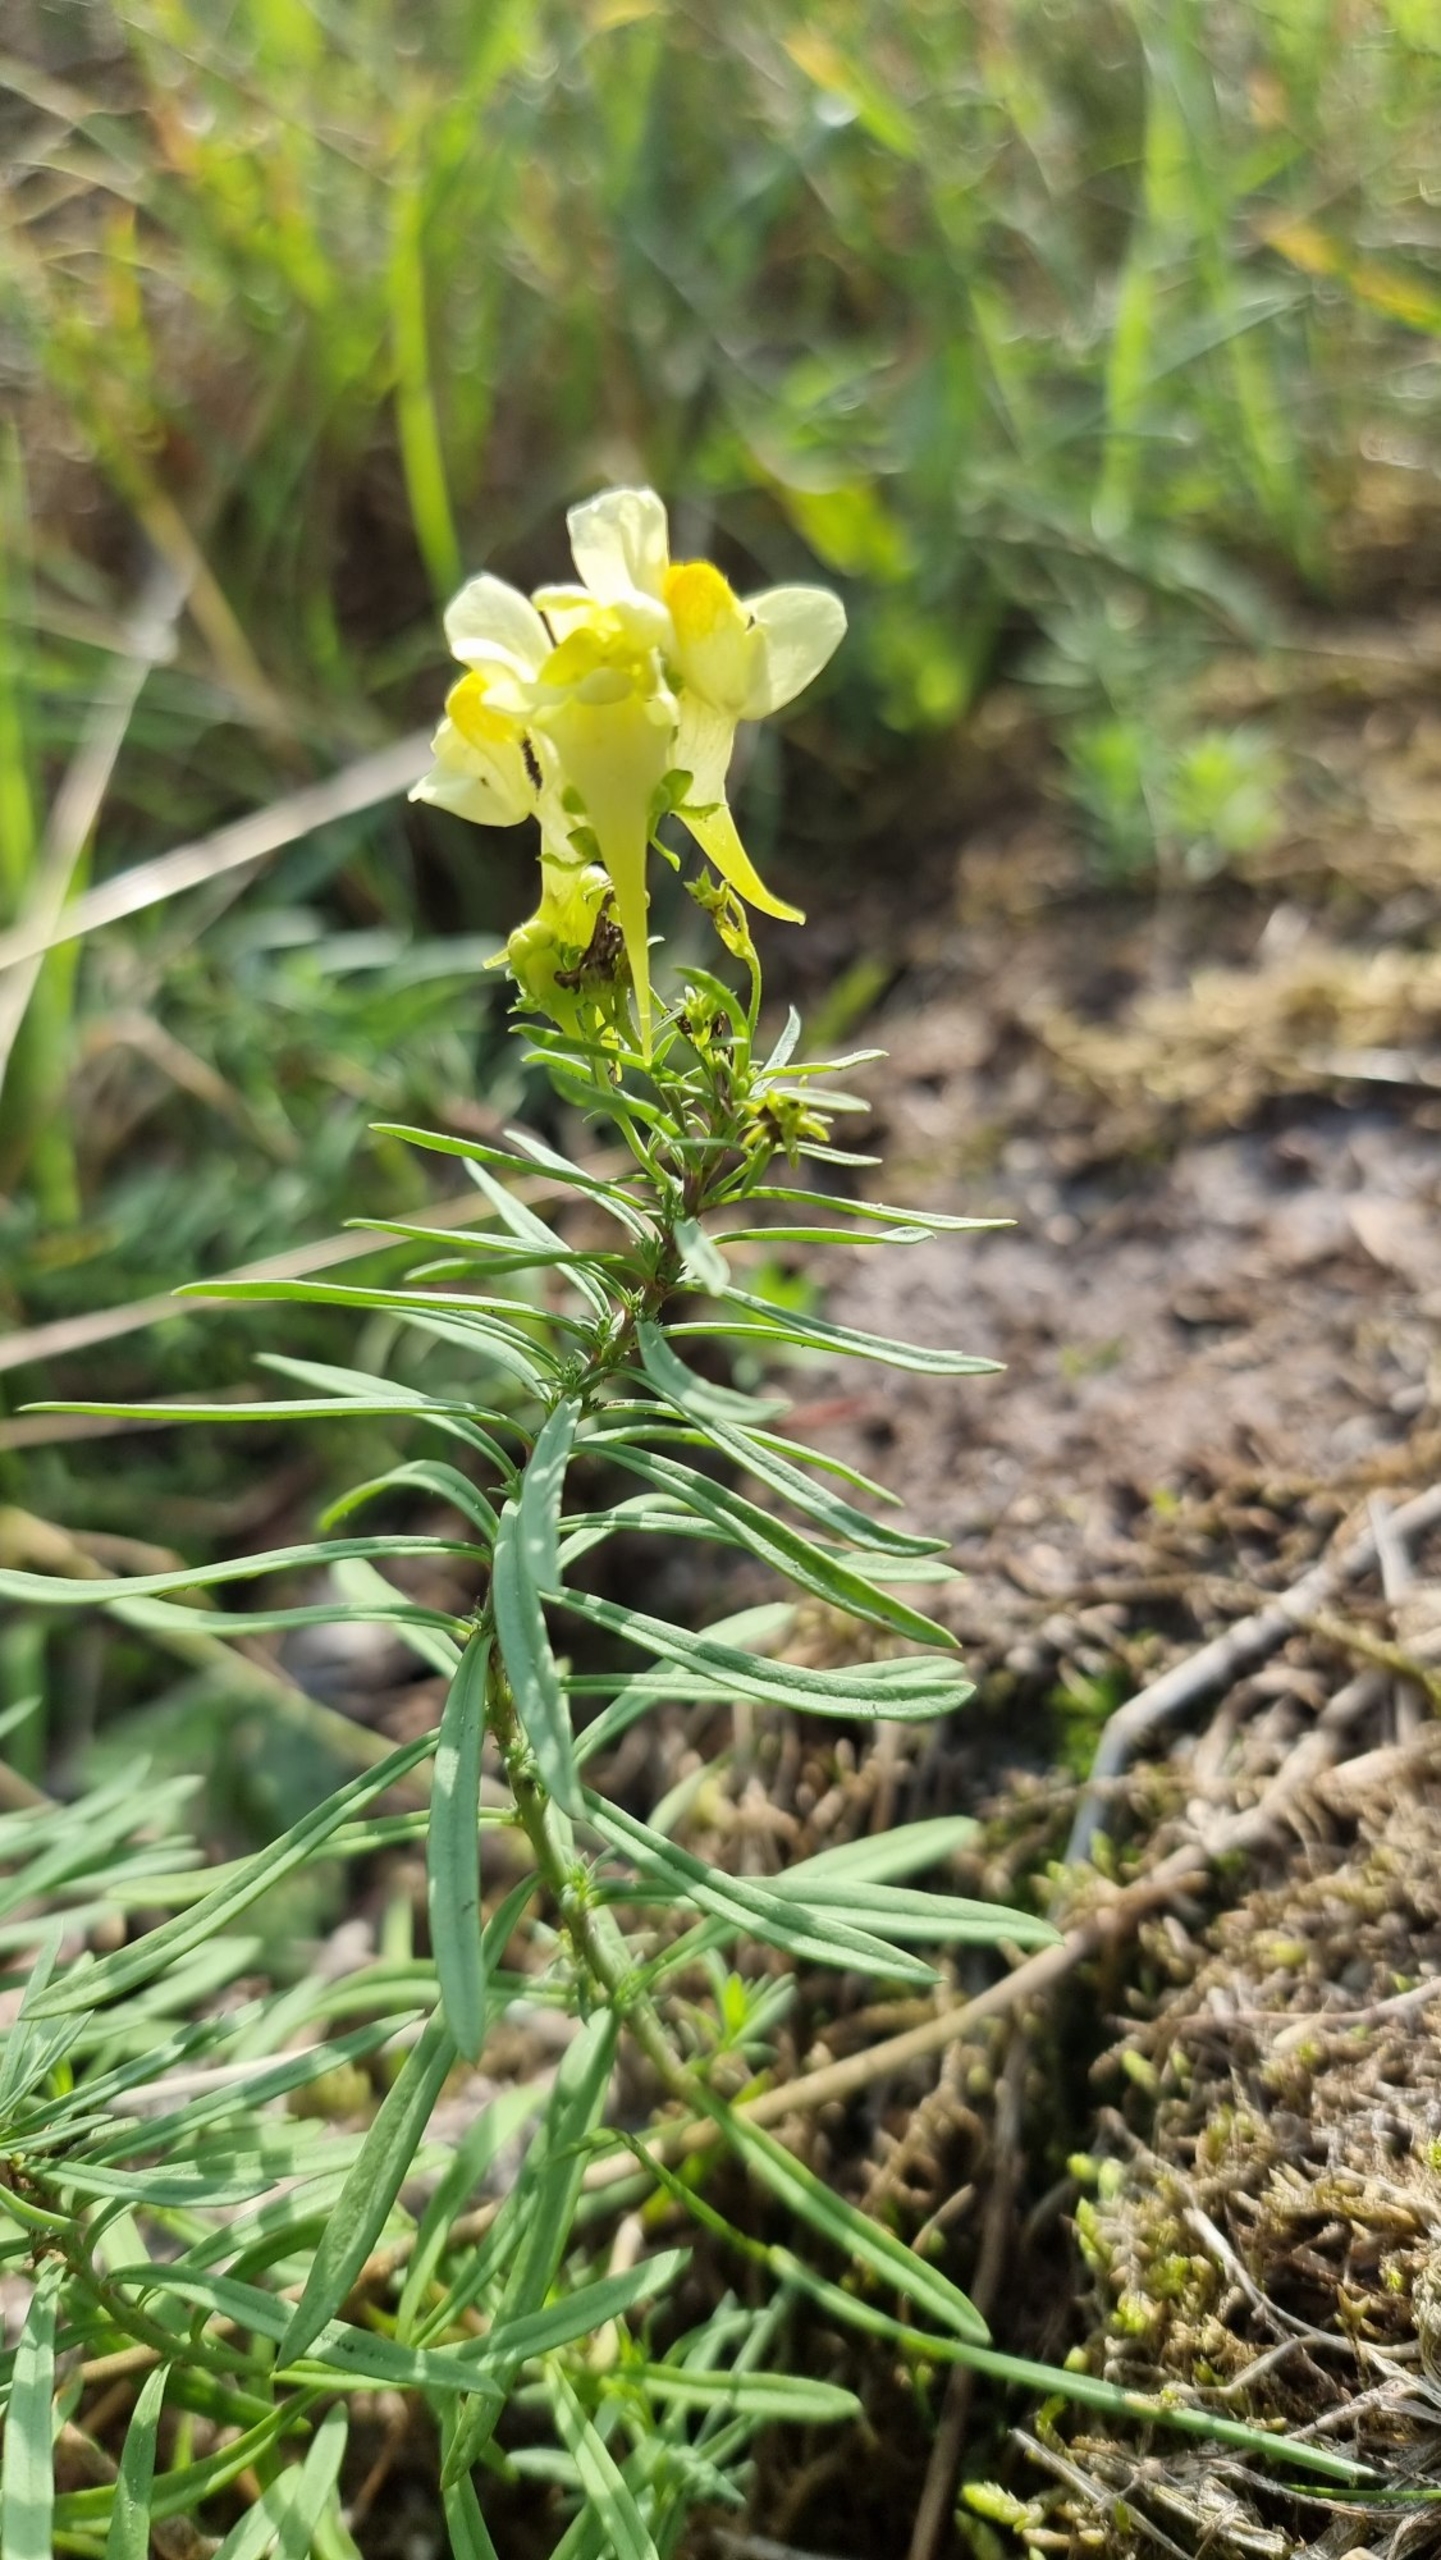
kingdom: Plantae
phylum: Tracheophyta
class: Magnoliopsida
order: Lamiales
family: Plantaginaceae
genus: Linaria
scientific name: Linaria vulgaris
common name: Almindelig torskemund
